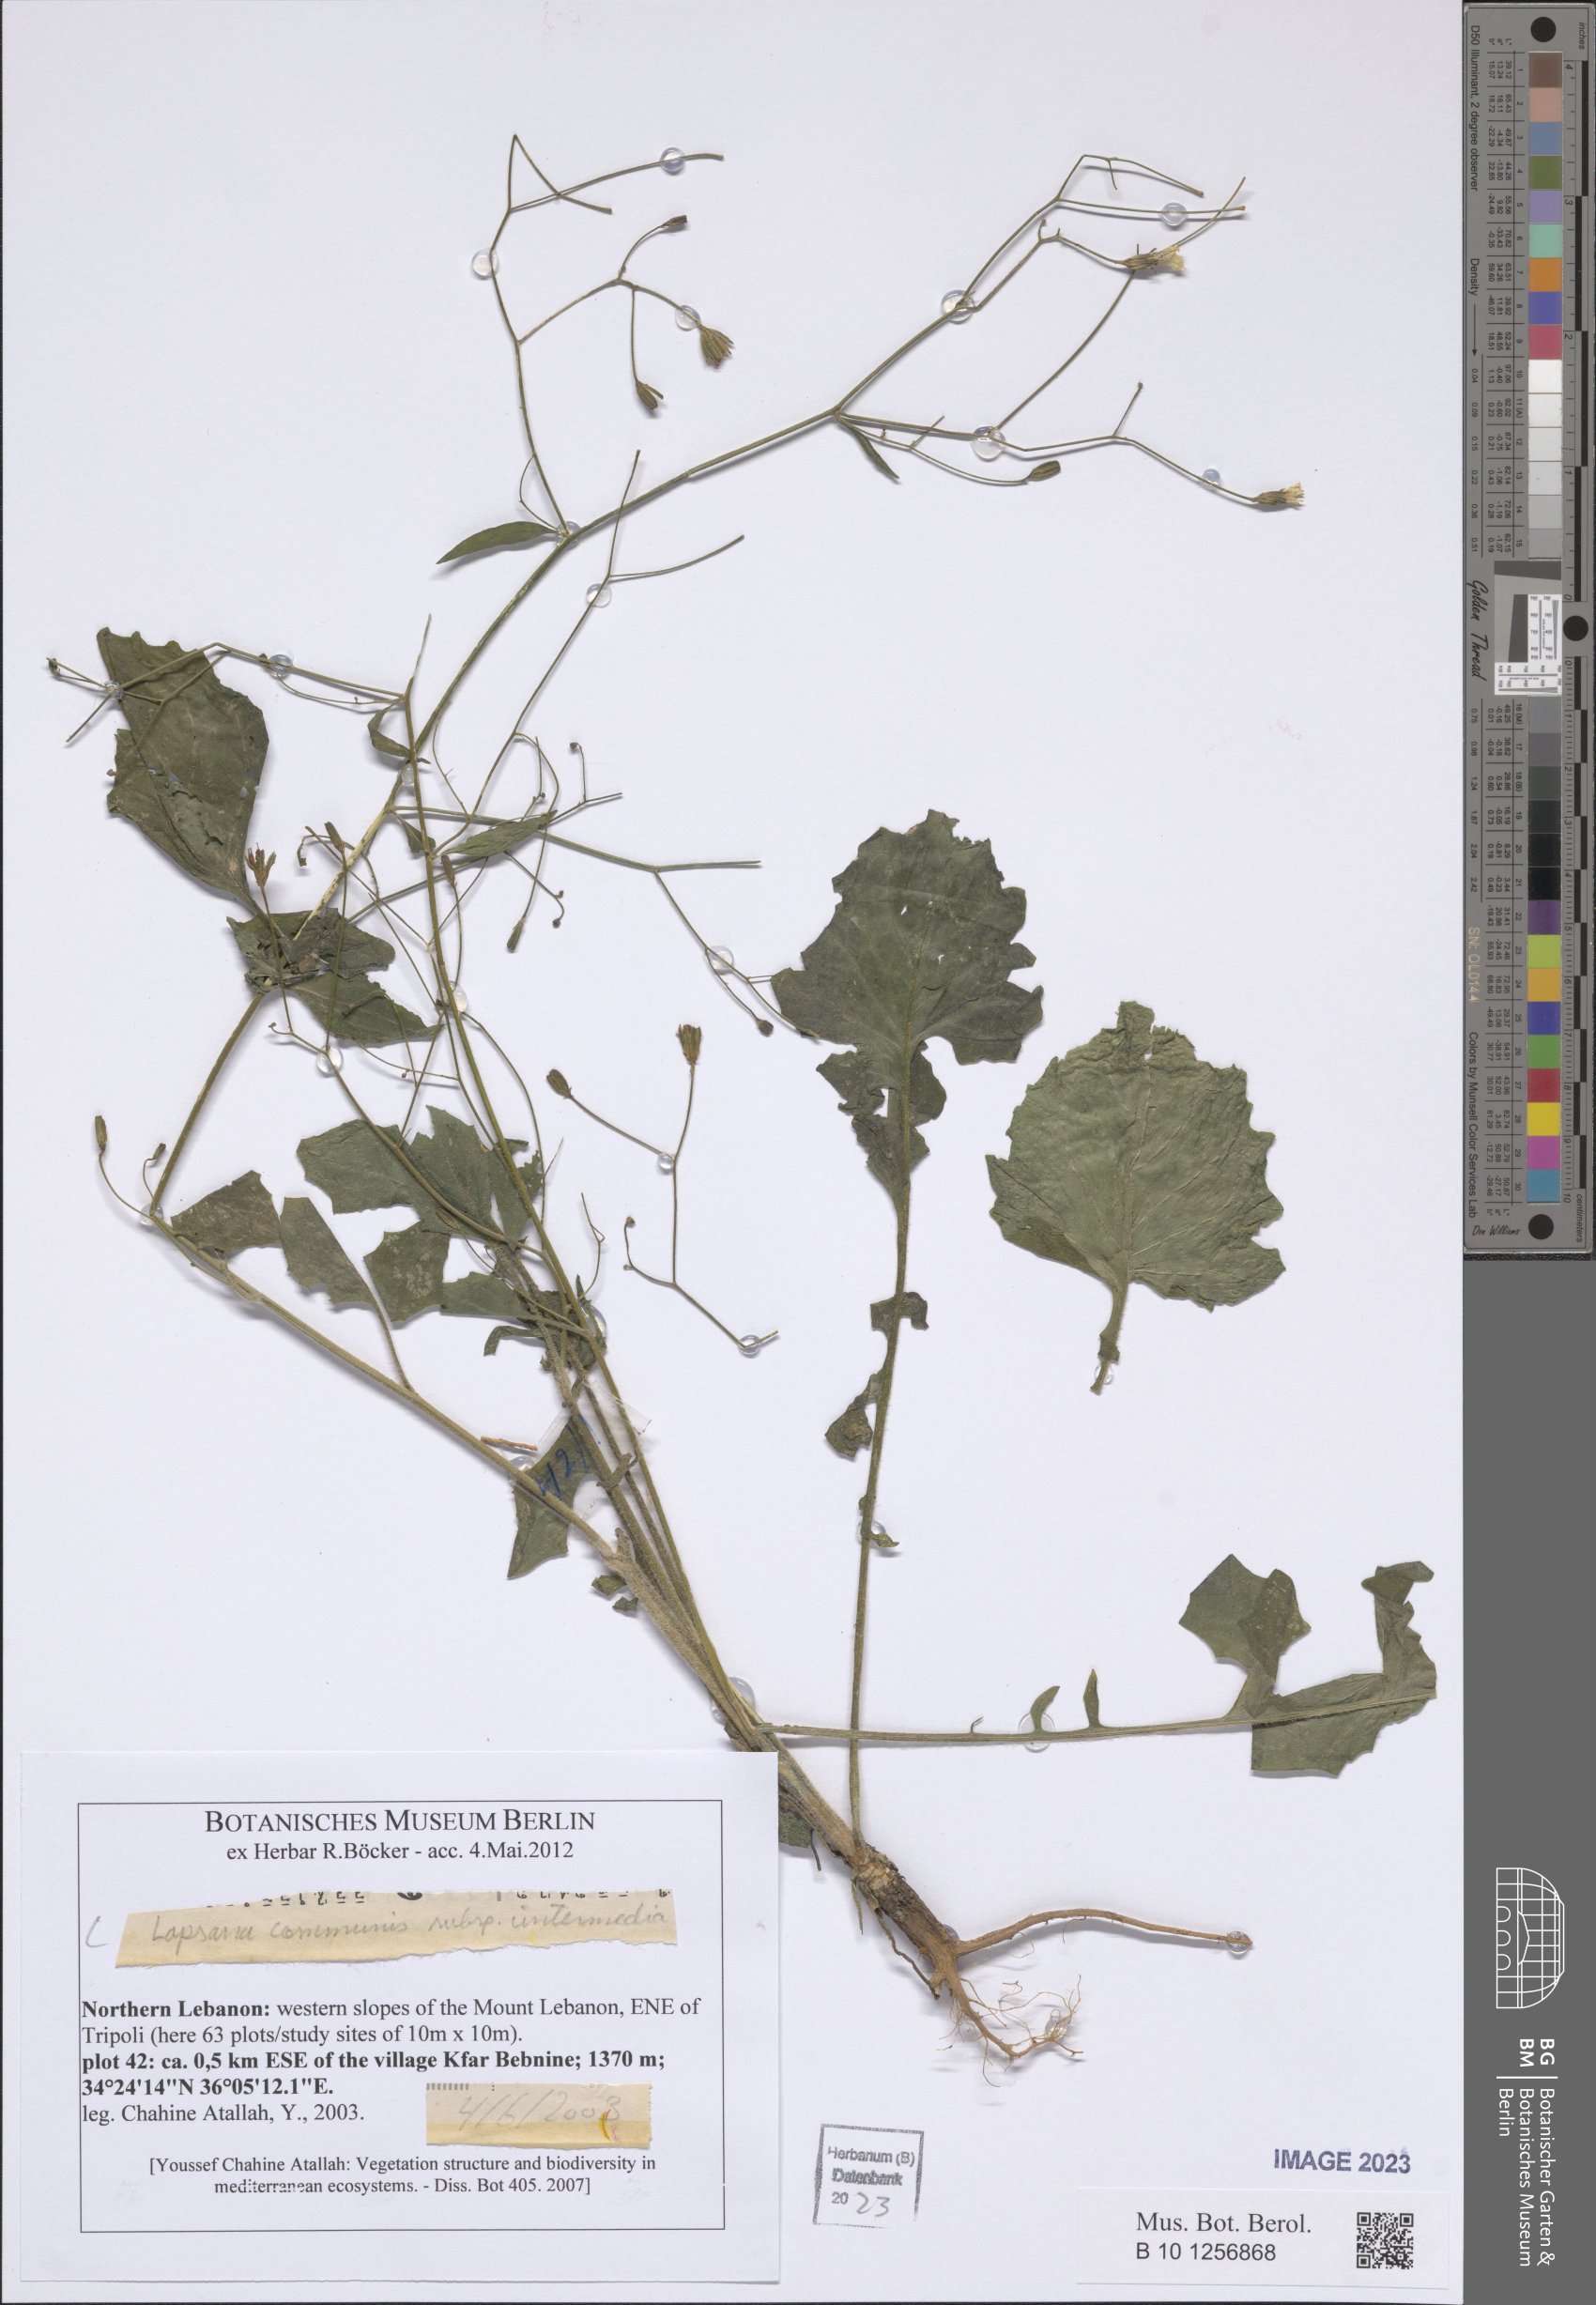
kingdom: Plantae
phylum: Tracheophyta
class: Magnoliopsida
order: Asterales
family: Asteraceae
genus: Lapsana
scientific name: Lapsana communis
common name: Nipplewort
